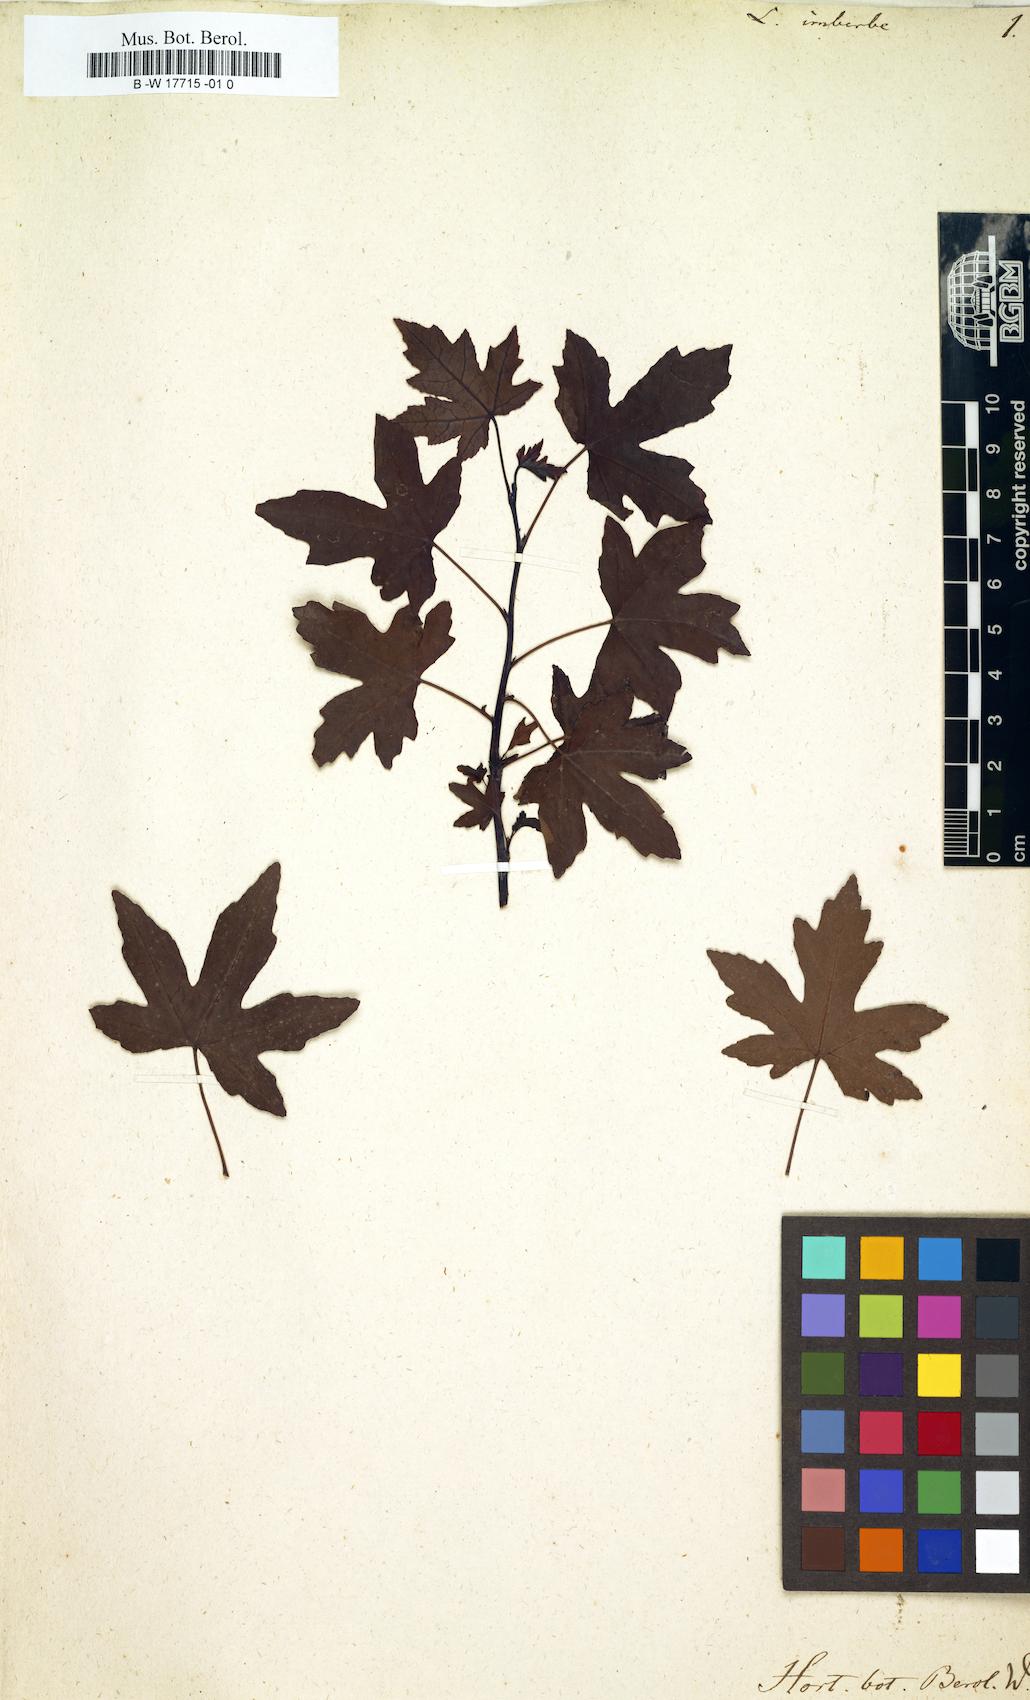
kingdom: Plantae
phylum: Tracheophyta
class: Magnoliopsida
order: Saxifragales
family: Altingiaceae
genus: Liquidambar
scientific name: Liquidambar orientalis
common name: Oriental sweetgum
